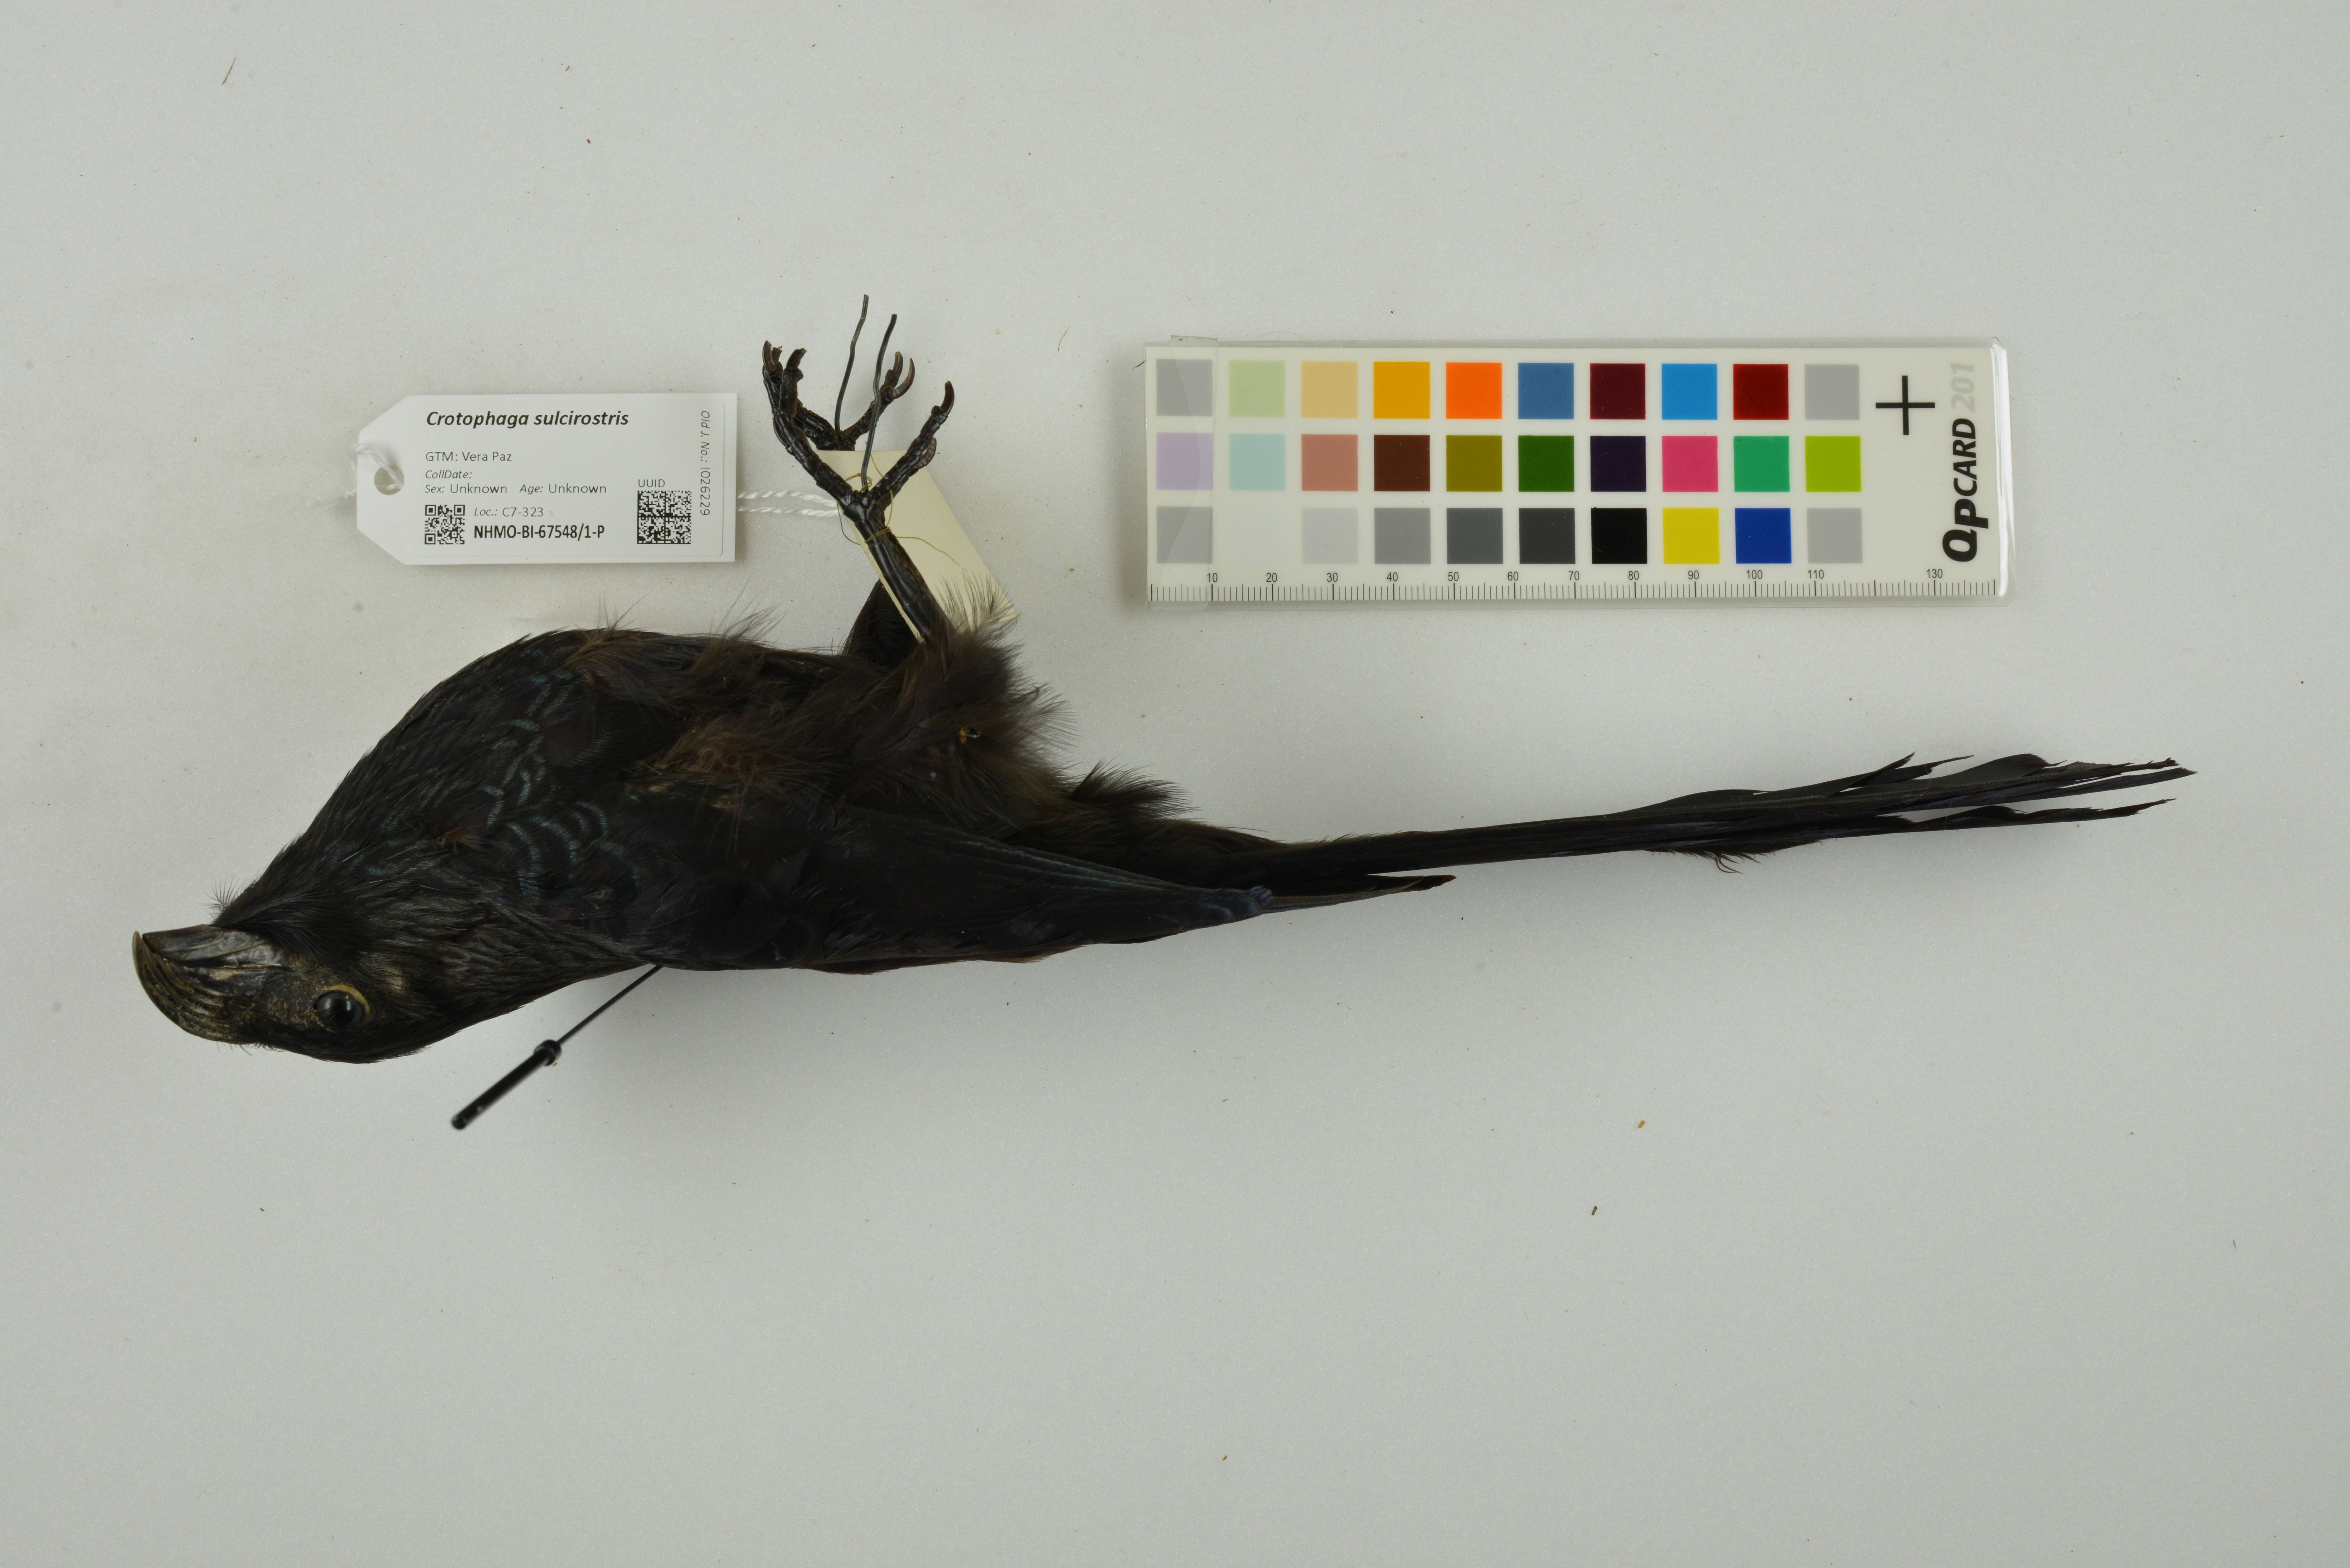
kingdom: Animalia
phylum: Chordata
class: Aves
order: Cuculiformes
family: Cuculidae
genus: Crotophaga
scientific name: Crotophaga sulcirostris
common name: Groove-billed ani
